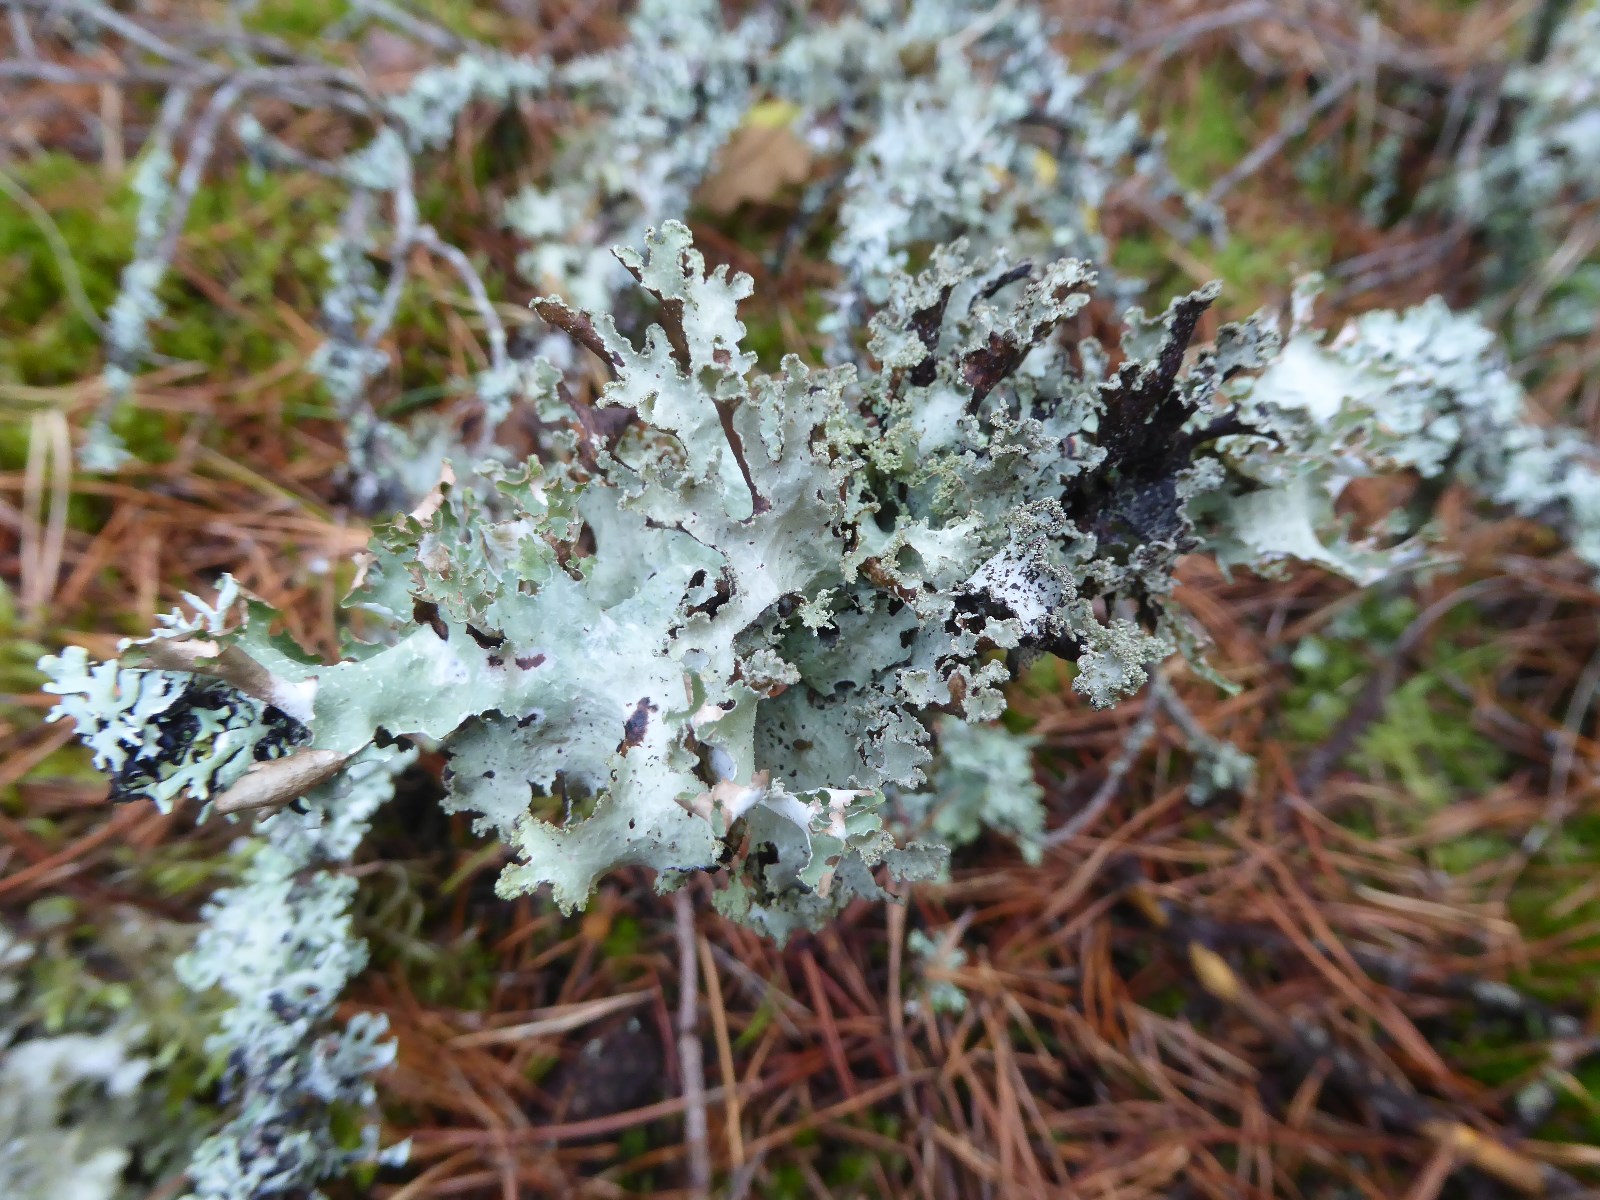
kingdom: Fungi
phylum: Ascomycota
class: Lecanoromycetes
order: Lecanorales
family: Parmeliaceae
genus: Platismatia
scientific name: Platismatia glauca
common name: blågrå papirlav
